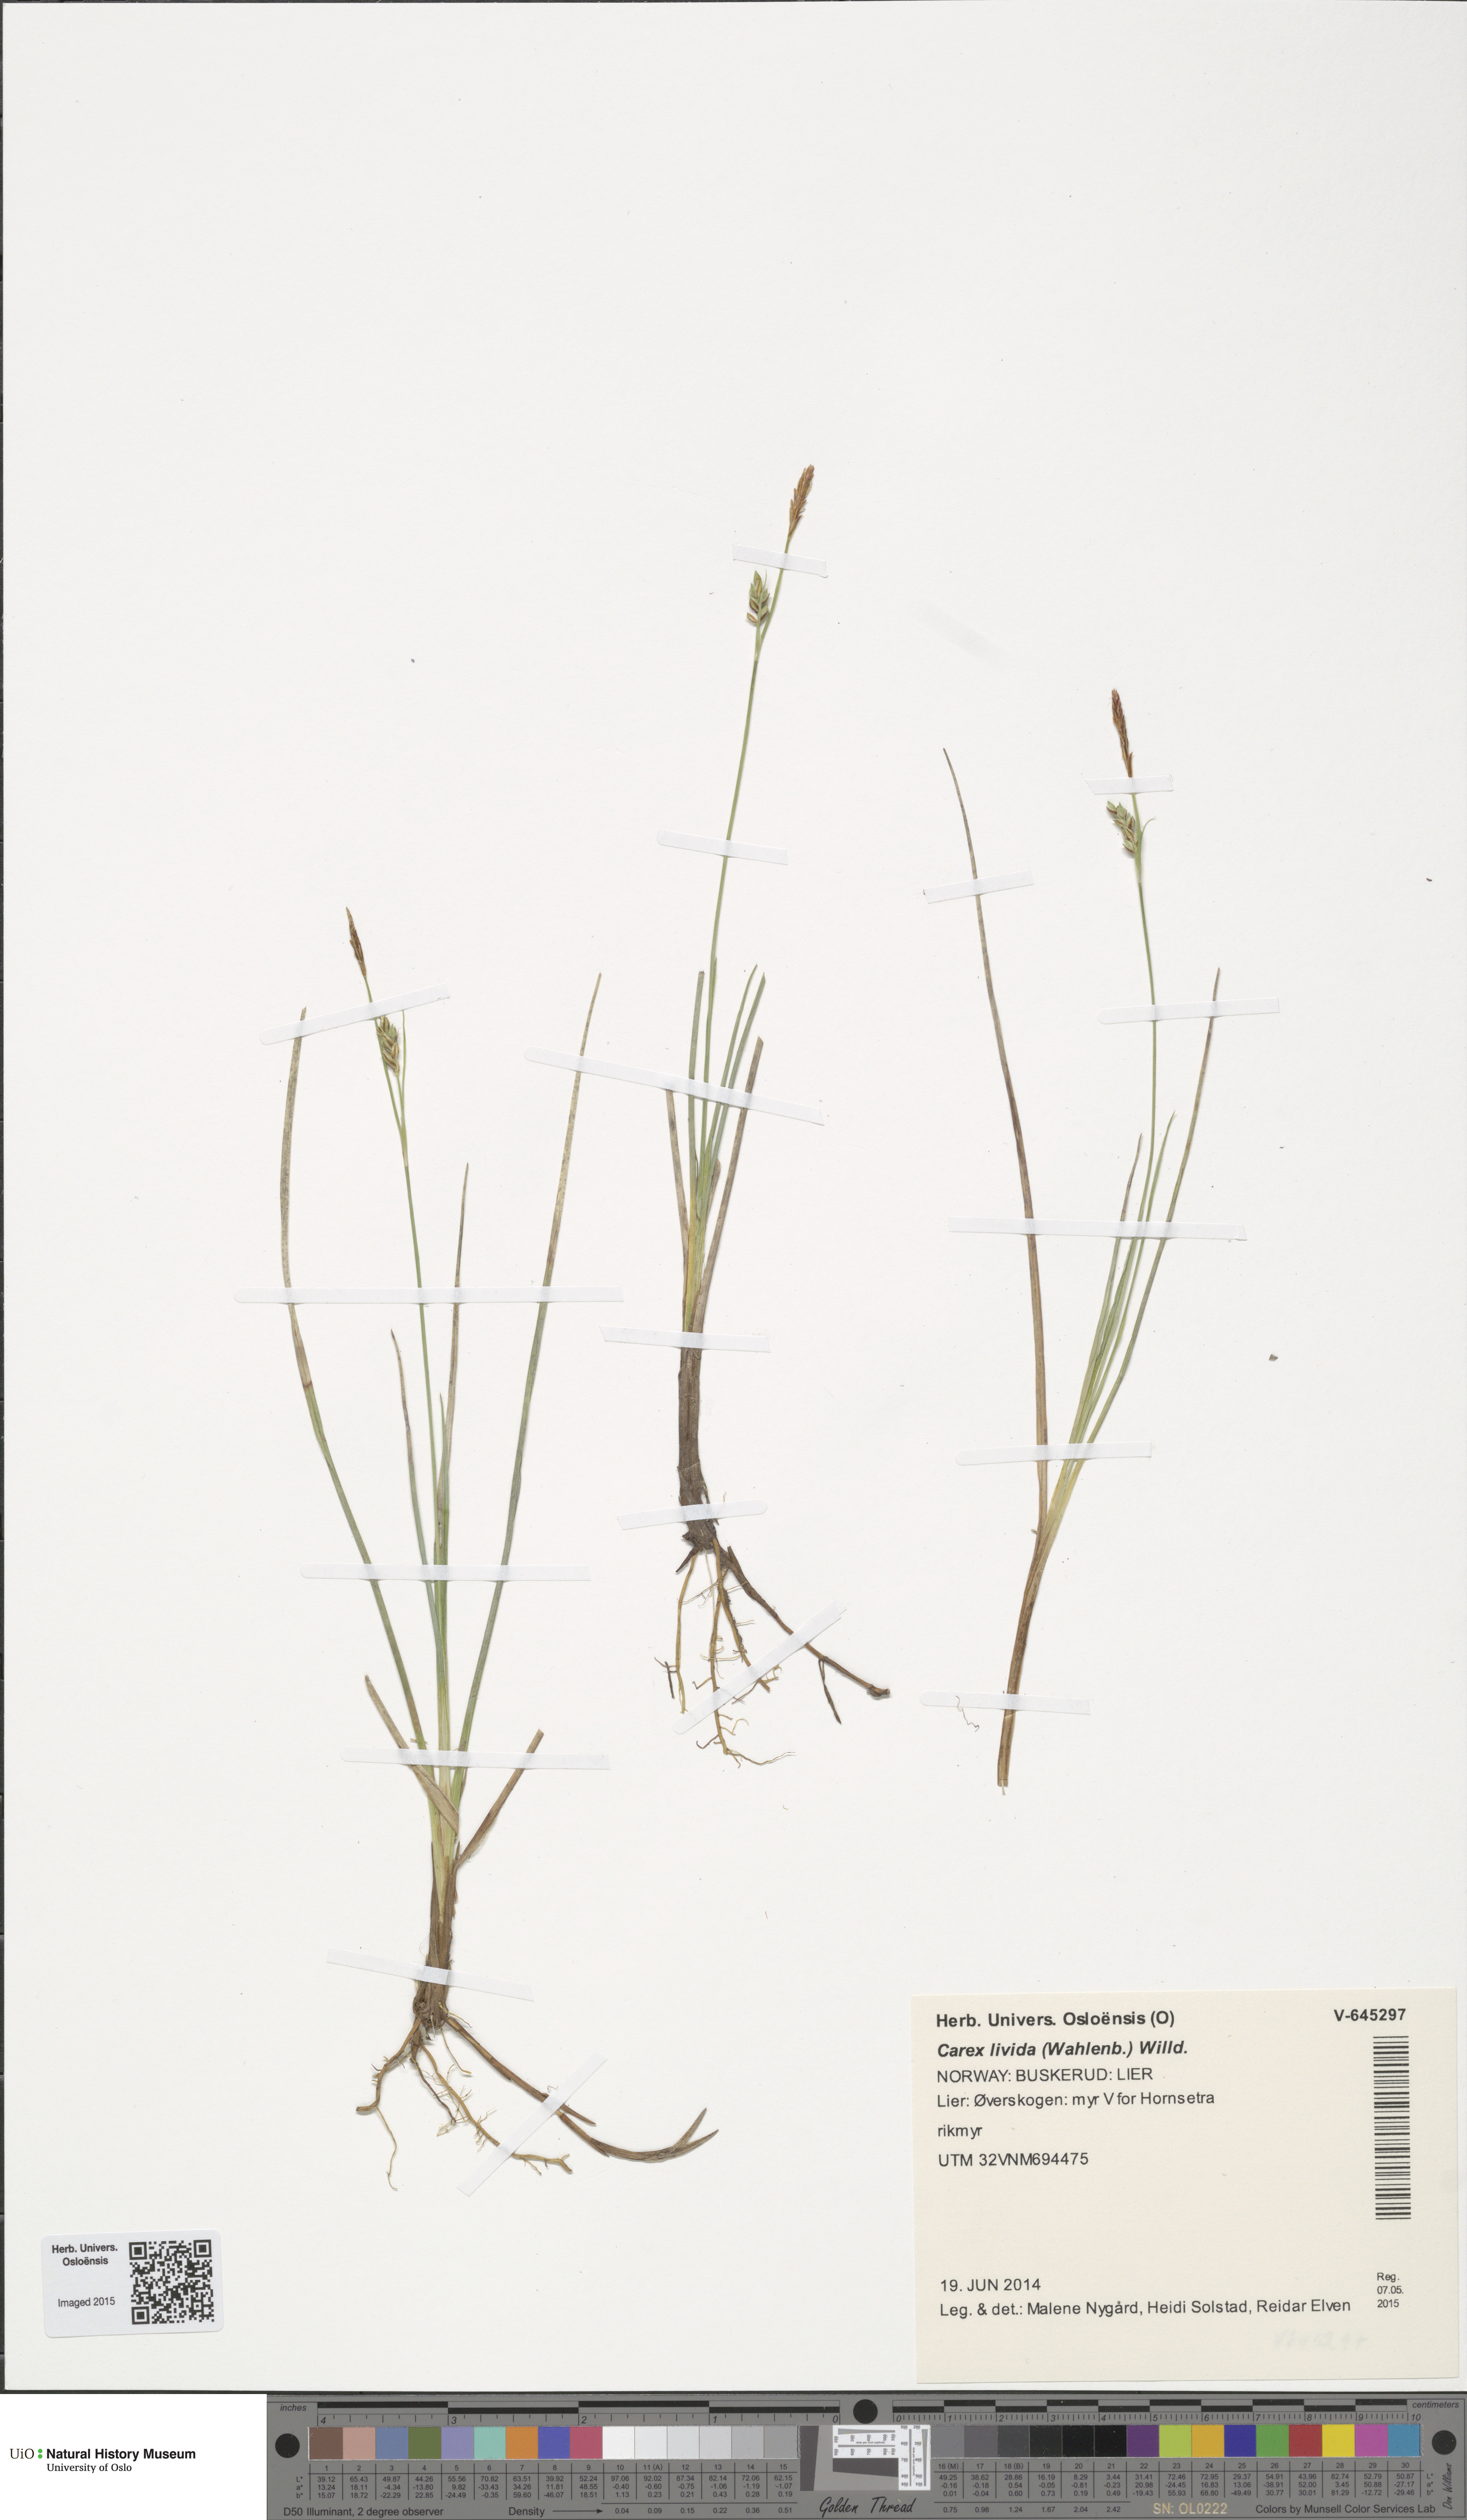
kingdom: Plantae
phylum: Tracheophyta
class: Liliopsida
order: Poales
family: Cyperaceae
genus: Carex
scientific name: Carex livida
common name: Livid sedge
